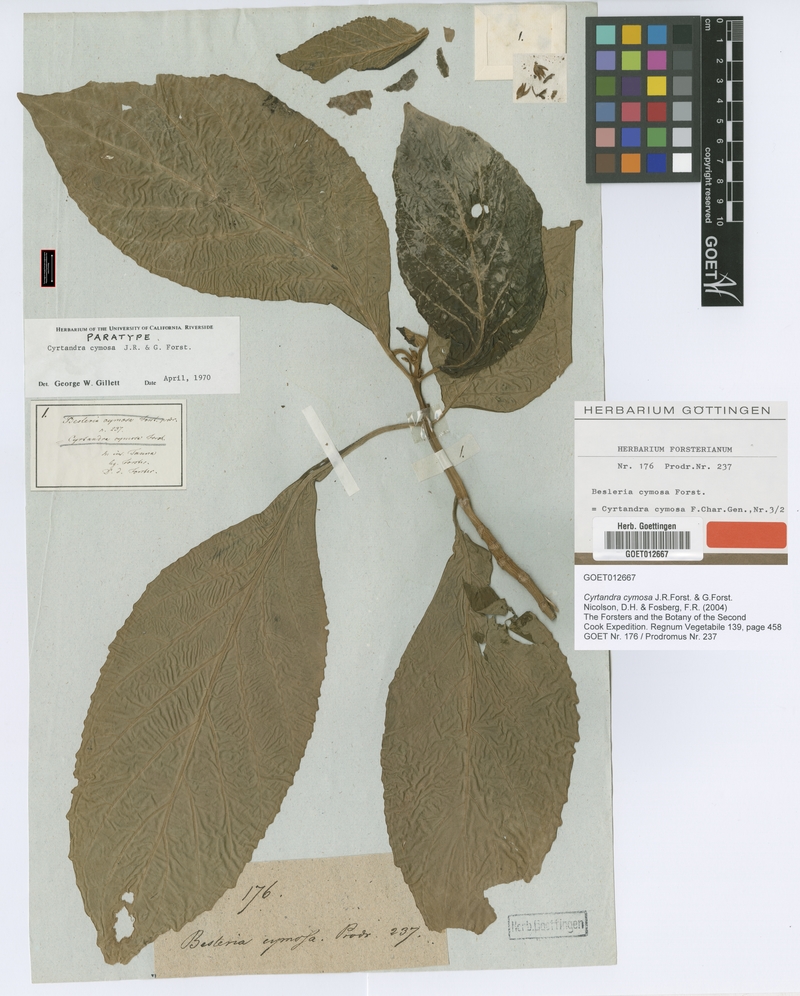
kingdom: Plantae
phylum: Tracheophyta
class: Magnoliopsida
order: Lamiales
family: Gesneriaceae
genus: Cyrtandra
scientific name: Cyrtandra cymosa
